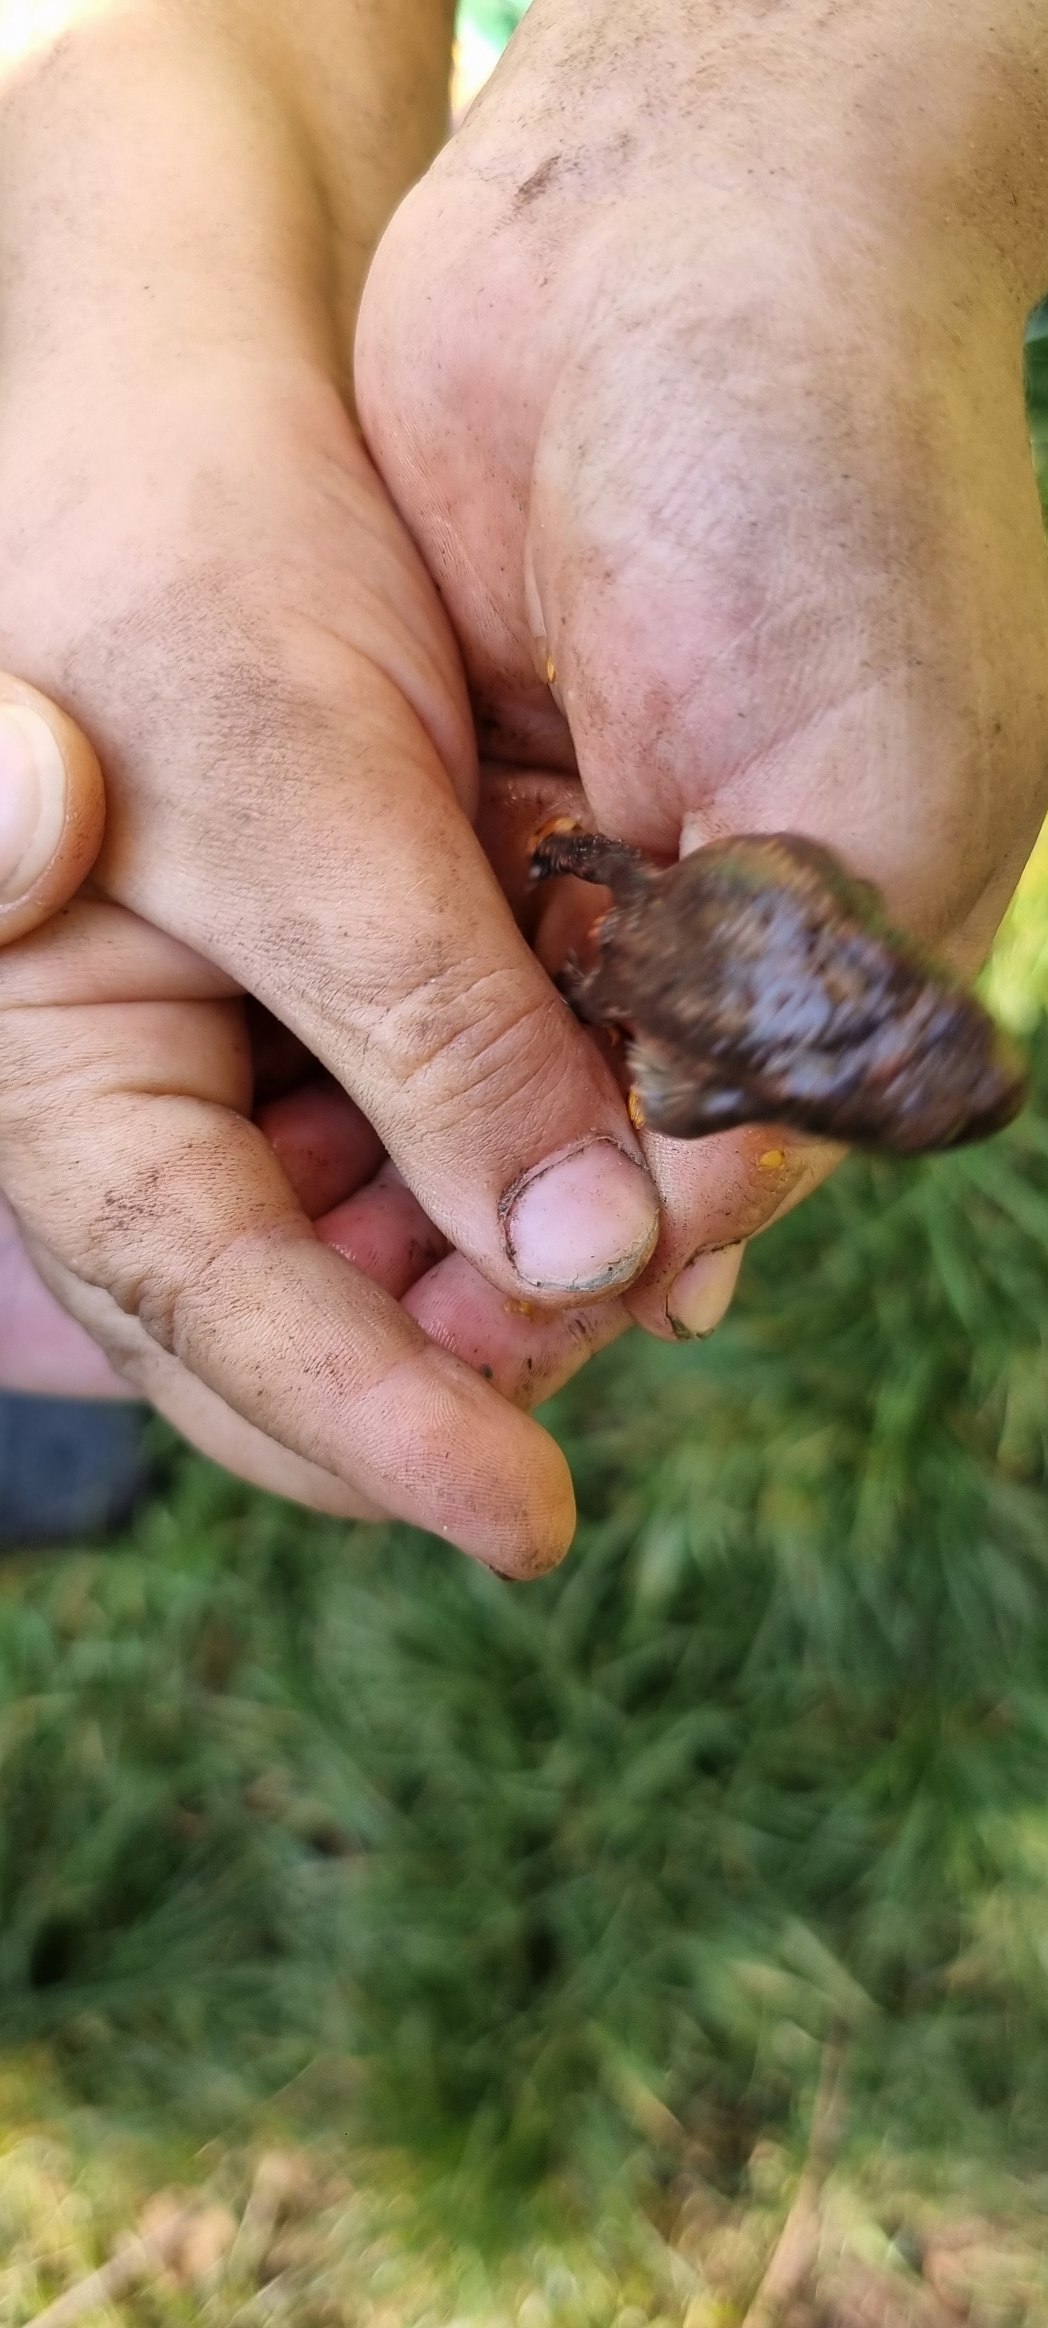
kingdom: Animalia
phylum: Chordata
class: Amphibia
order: Anura
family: Bufonidae
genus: Bufo
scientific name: Bufo bufo
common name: Skrubtudse
